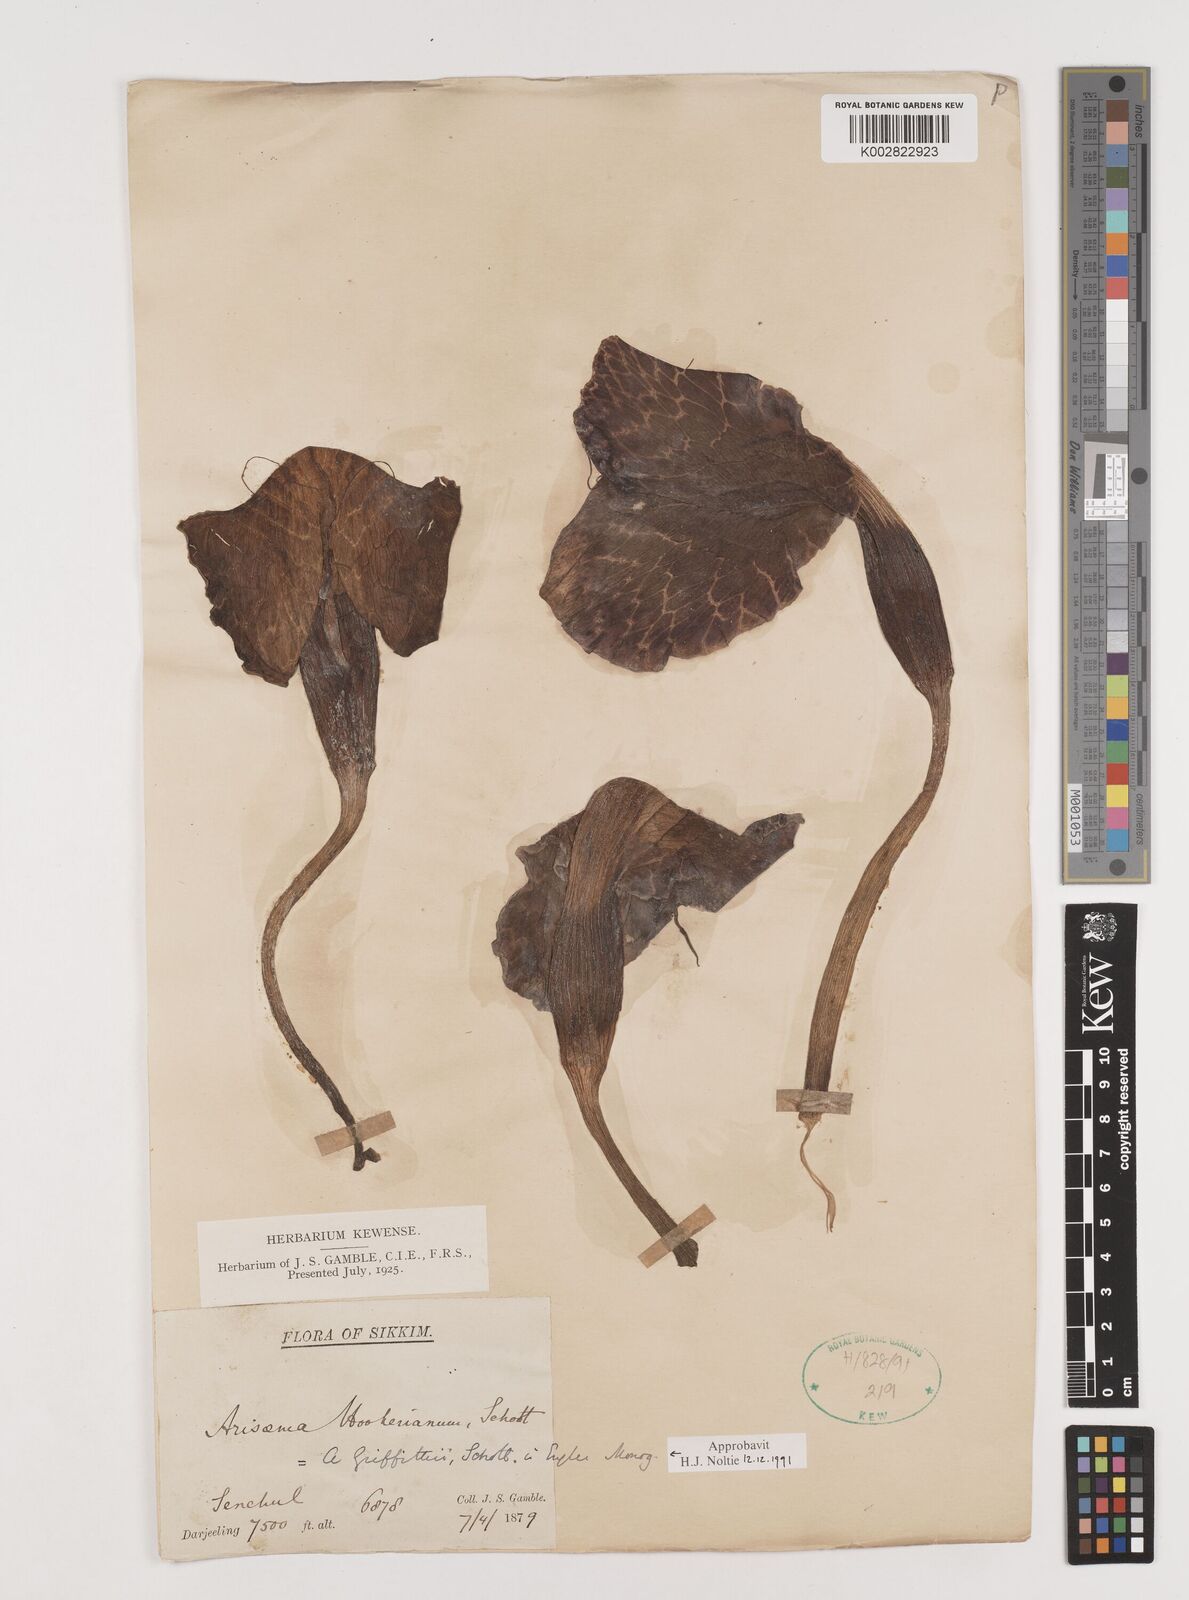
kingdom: Plantae
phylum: Tracheophyta
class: Liliopsida
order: Alismatales
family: Araceae
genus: Arisaema
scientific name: Arisaema griffithii
